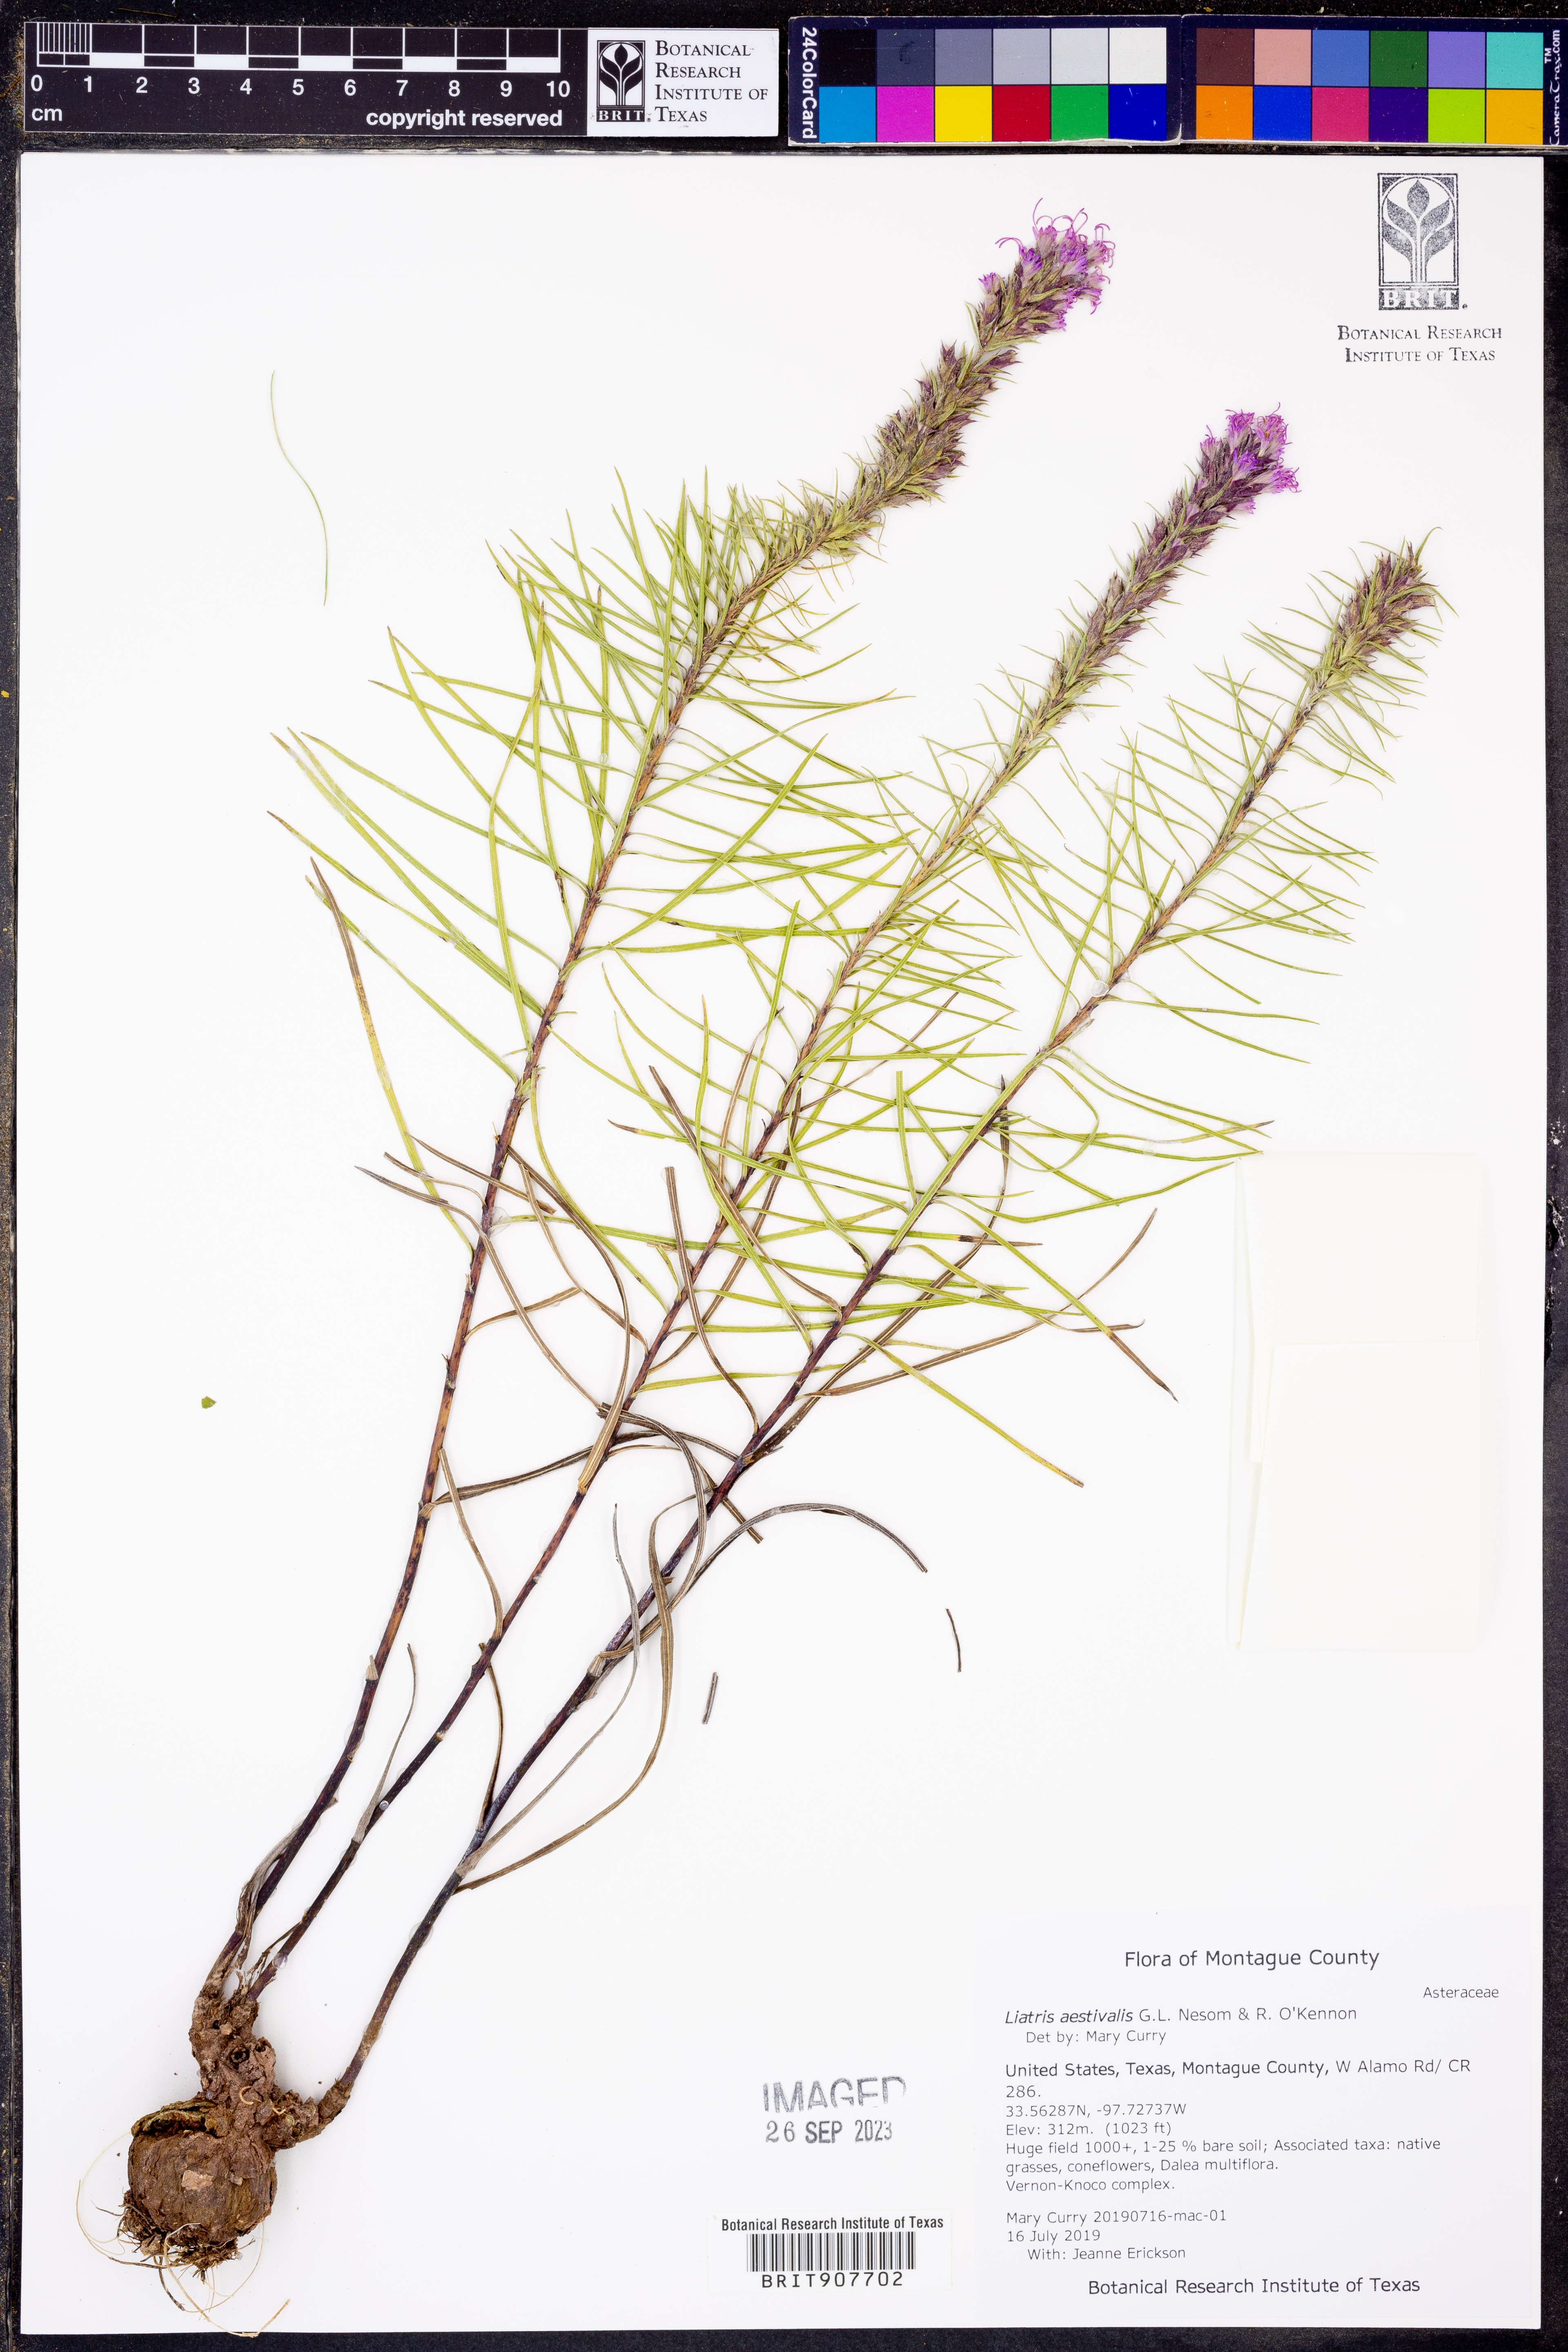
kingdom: Plantae
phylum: Tracheophyta
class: Magnoliopsida
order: Asterales
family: Asteraceae
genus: Liatris
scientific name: Liatris aestivalis
